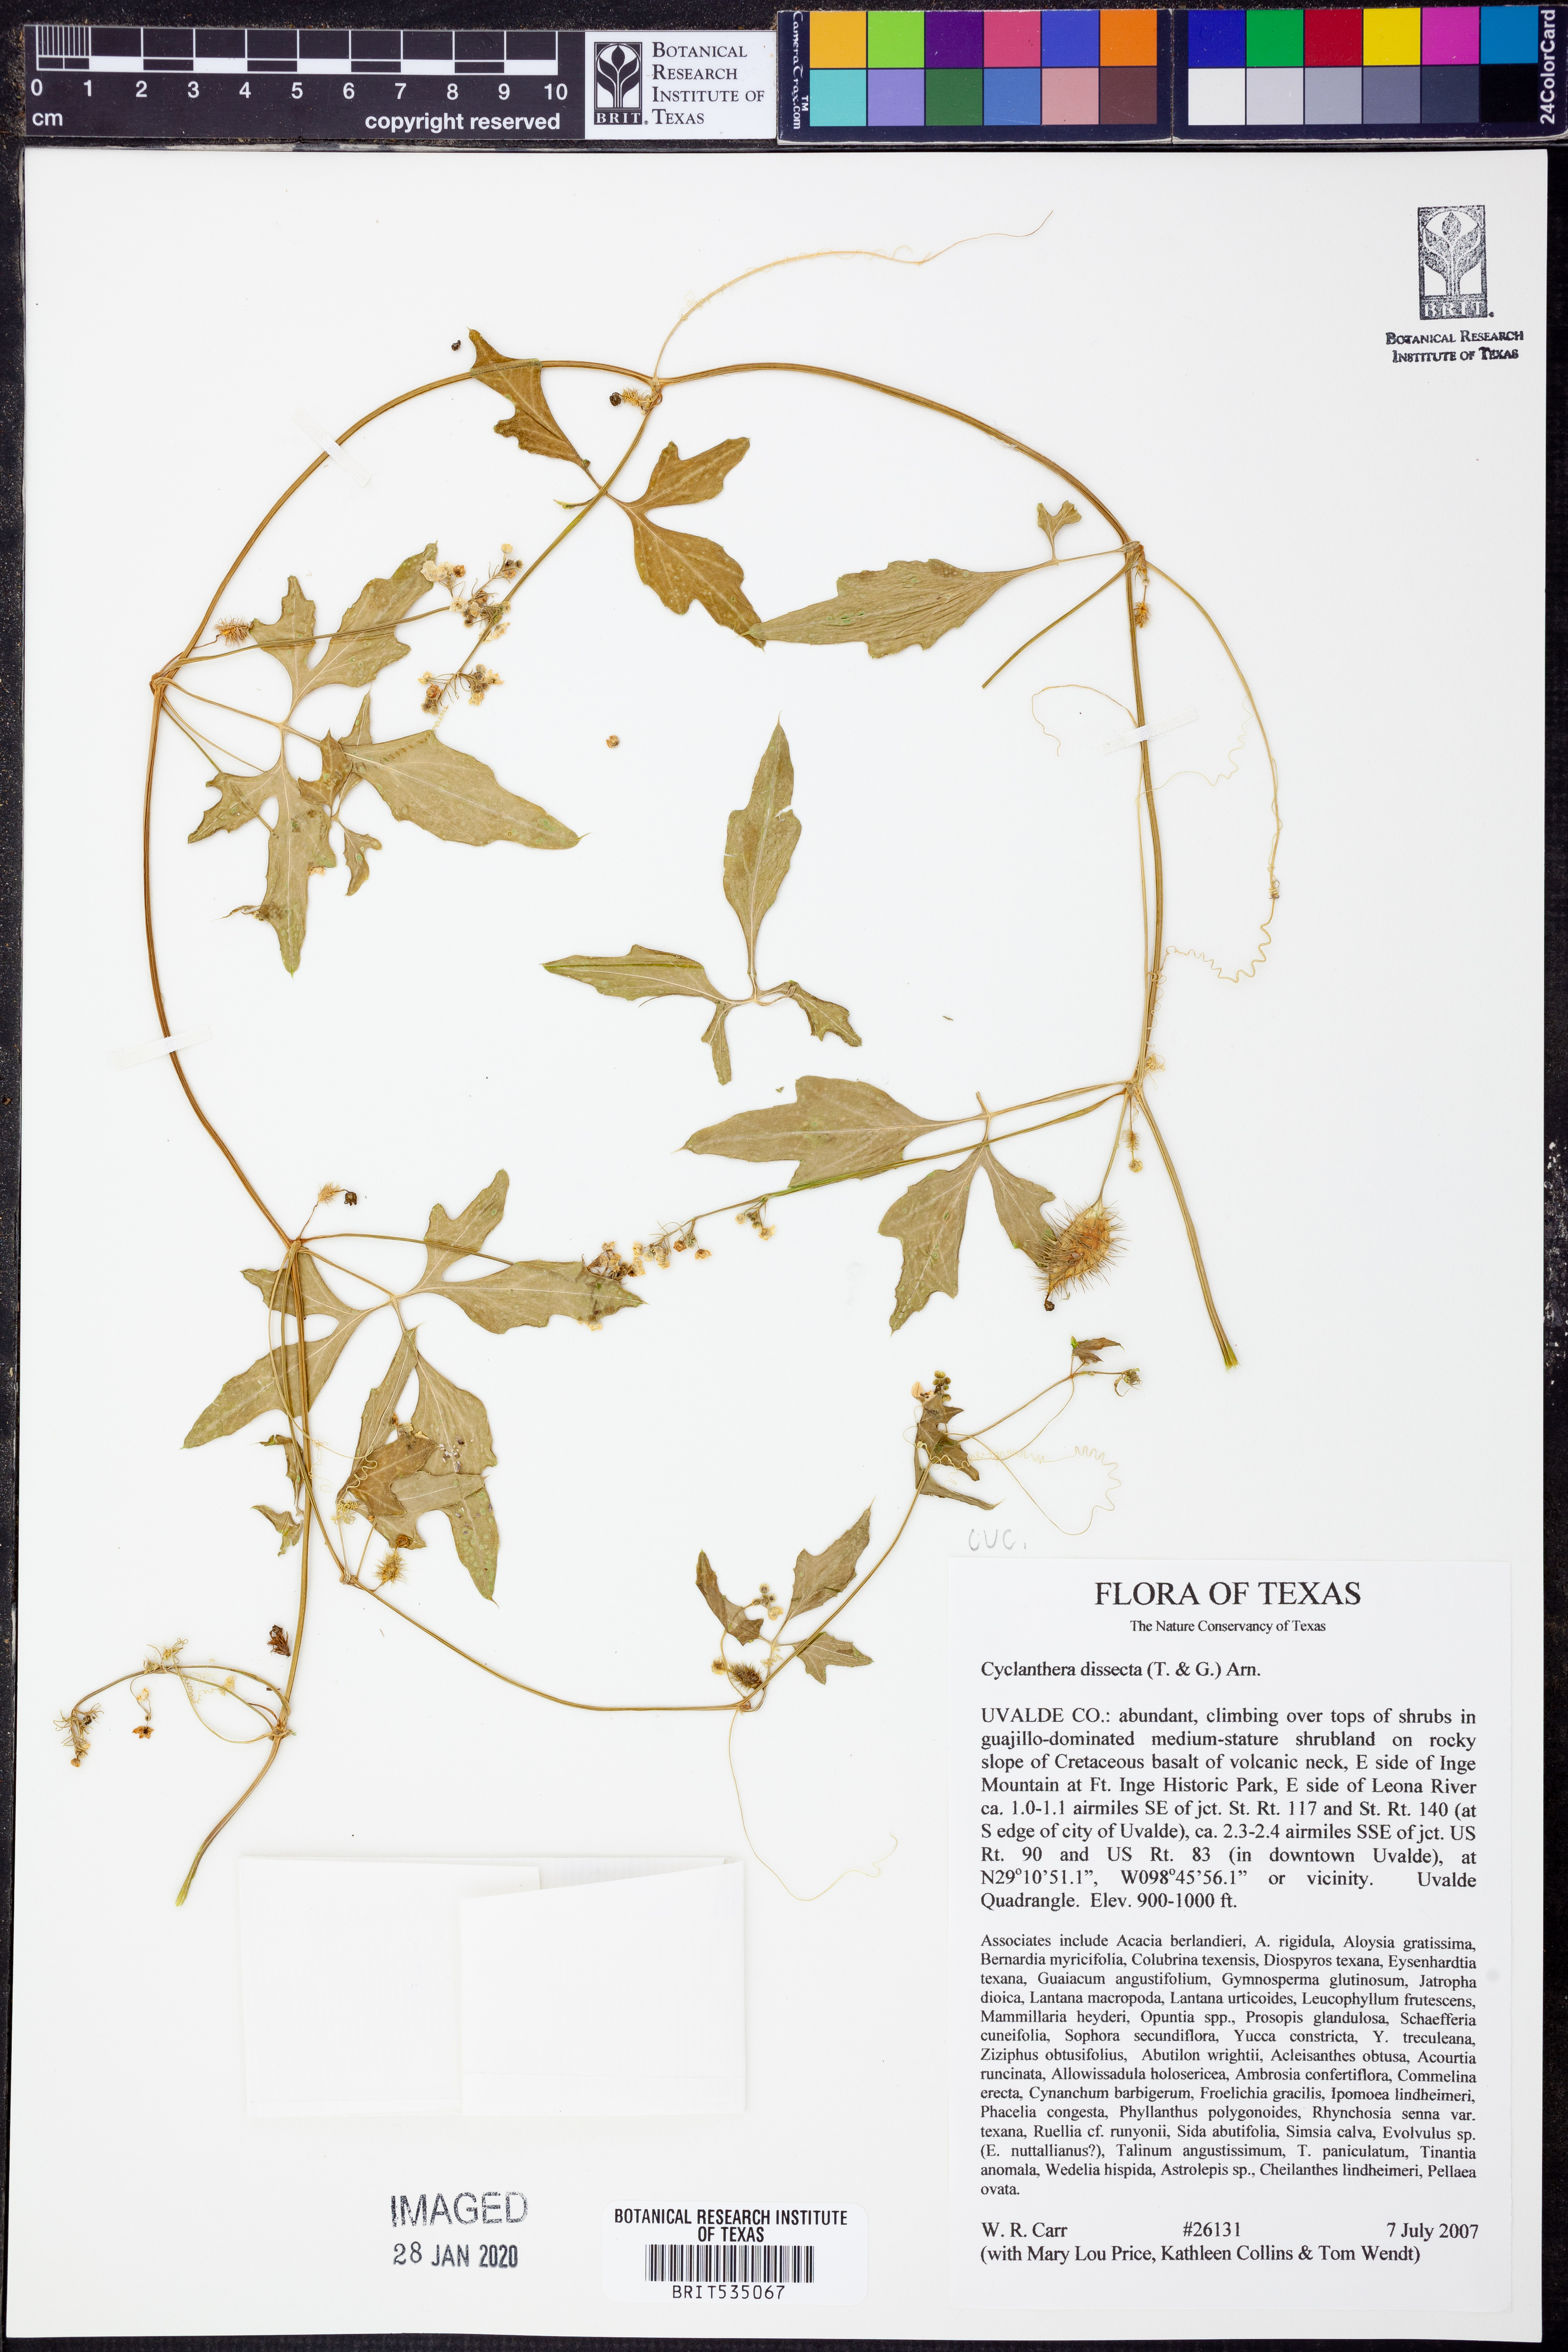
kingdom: Plantae
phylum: Tracheophyta
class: Magnoliopsida
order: Cucurbitales
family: Cucurbitaceae
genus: Cyclanthera
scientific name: Cyclanthera dissecta
